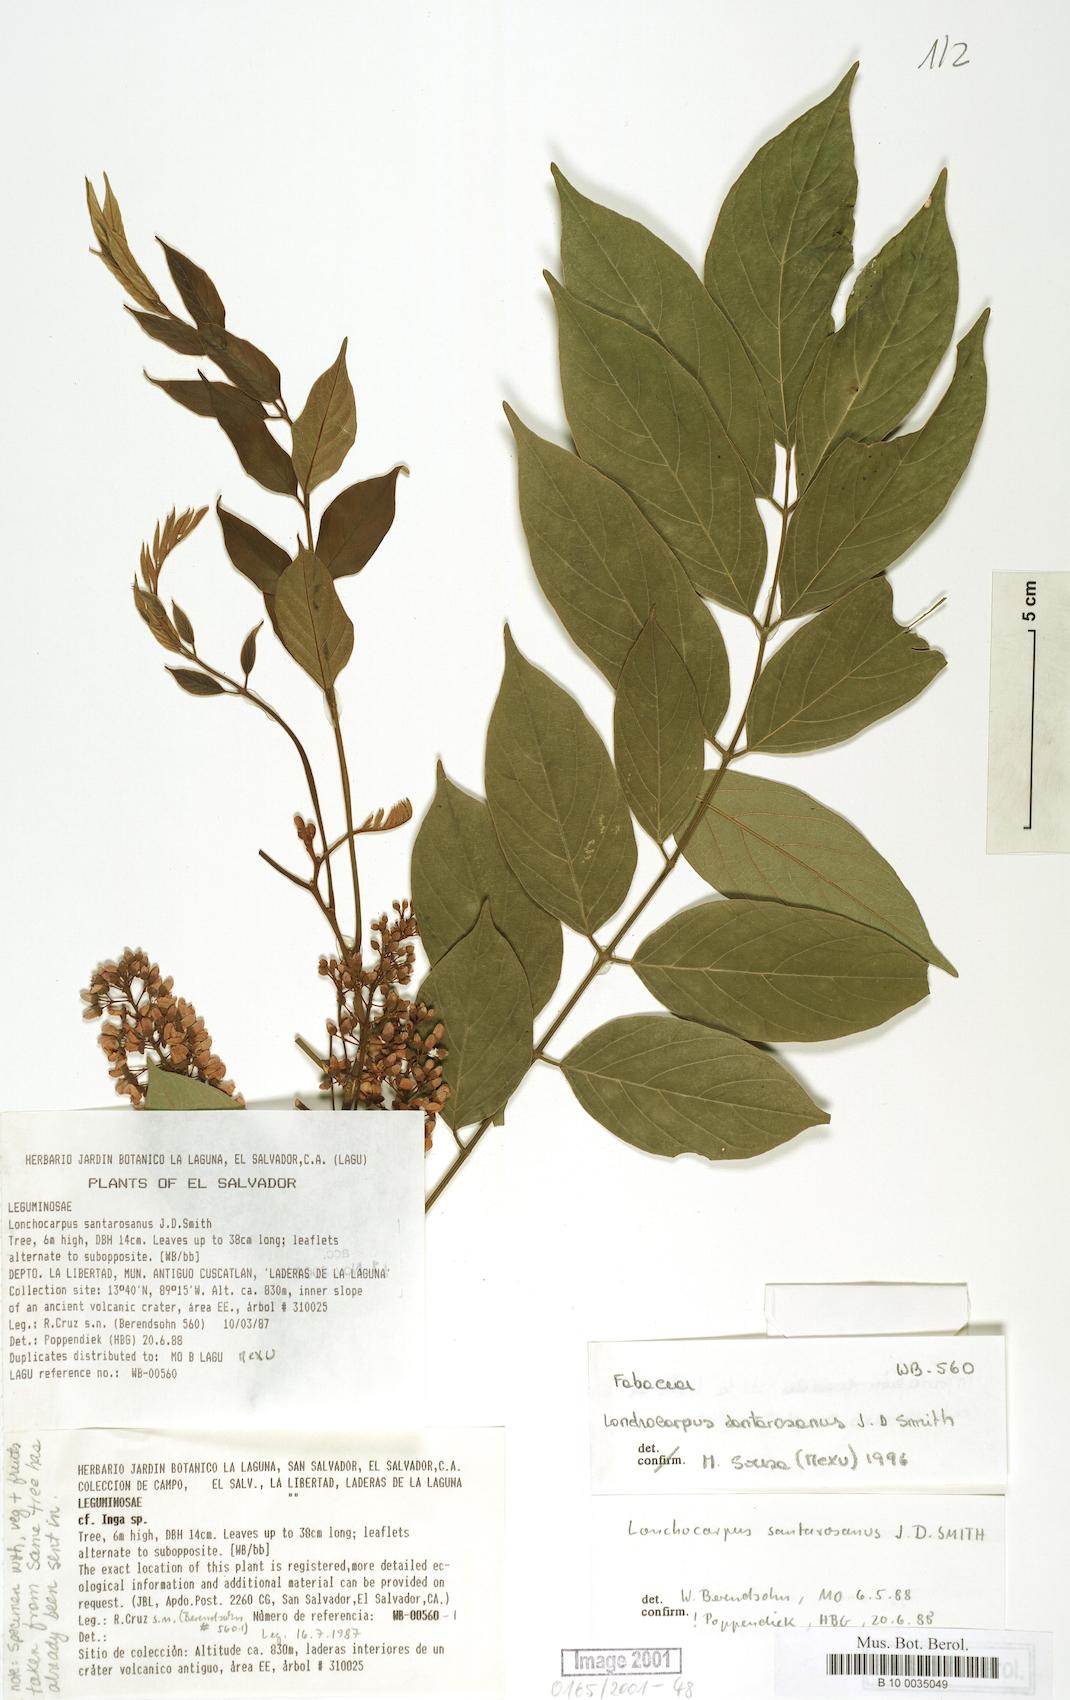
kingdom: Plantae
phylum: Tracheophyta
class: Magnoliopsida
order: Fabales
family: Fabaceae
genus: Lonchocarpus
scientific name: Lonchocarpus santarosanus
